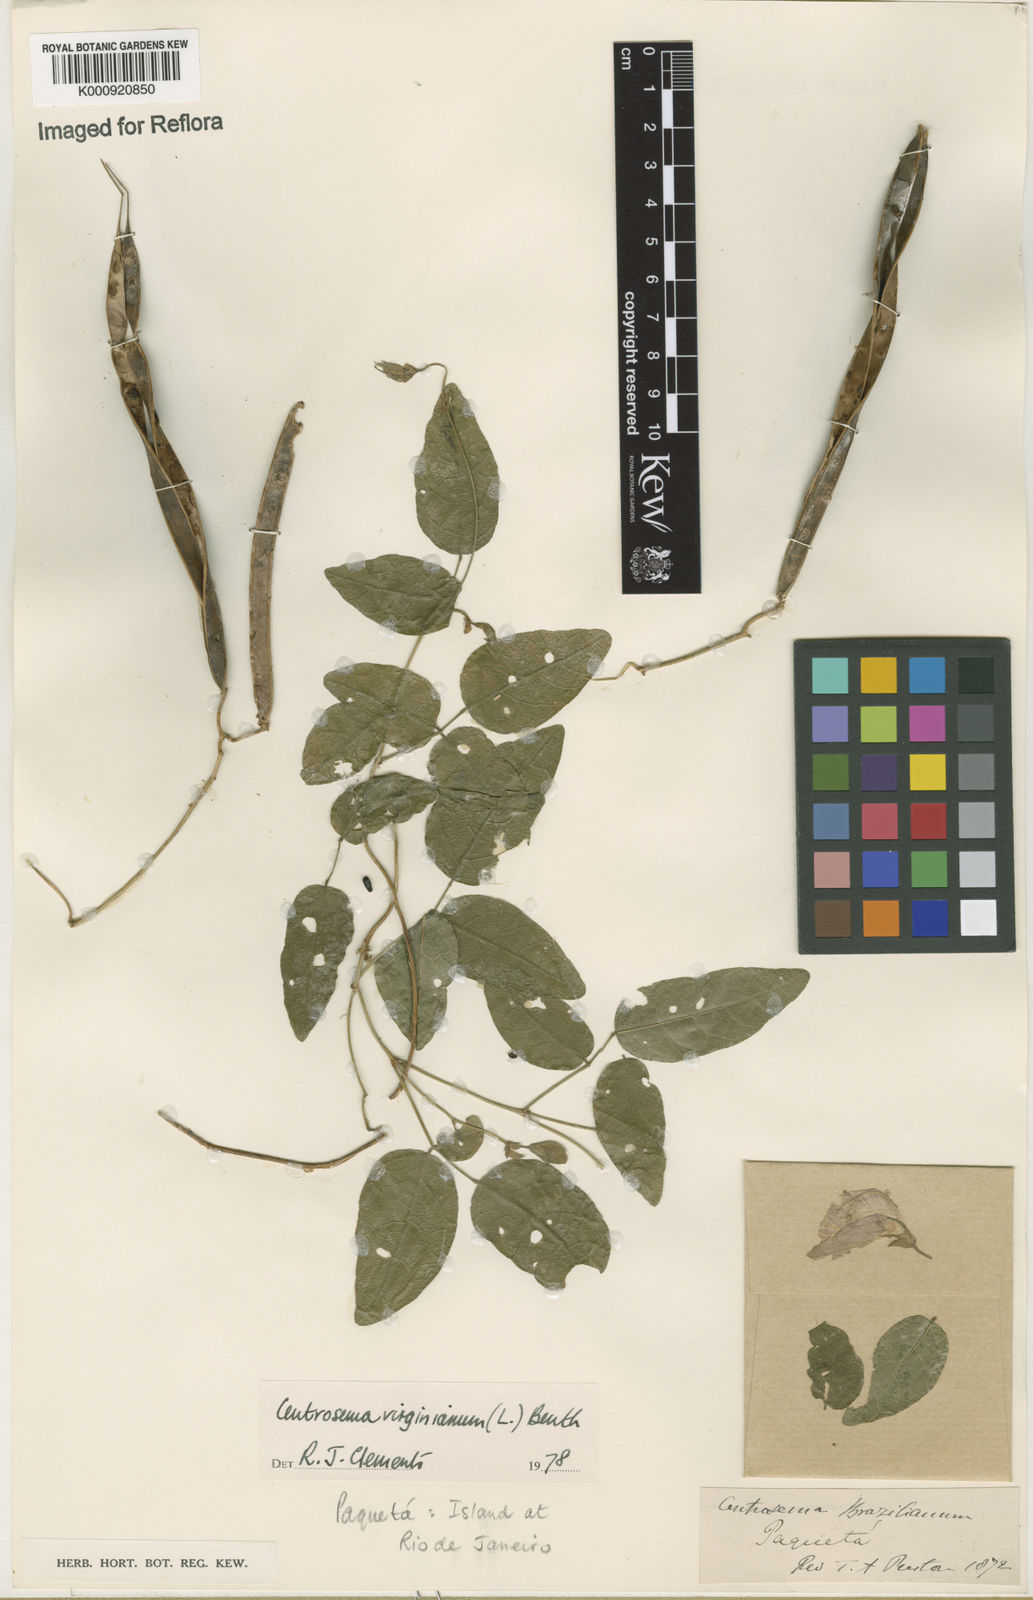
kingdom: Plantae
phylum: Tracheophyta
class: Magnoliopsida
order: Fabales
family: Fabaceae
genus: Centrosema
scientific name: Centrosema virginianum
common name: Butterfly-pea
